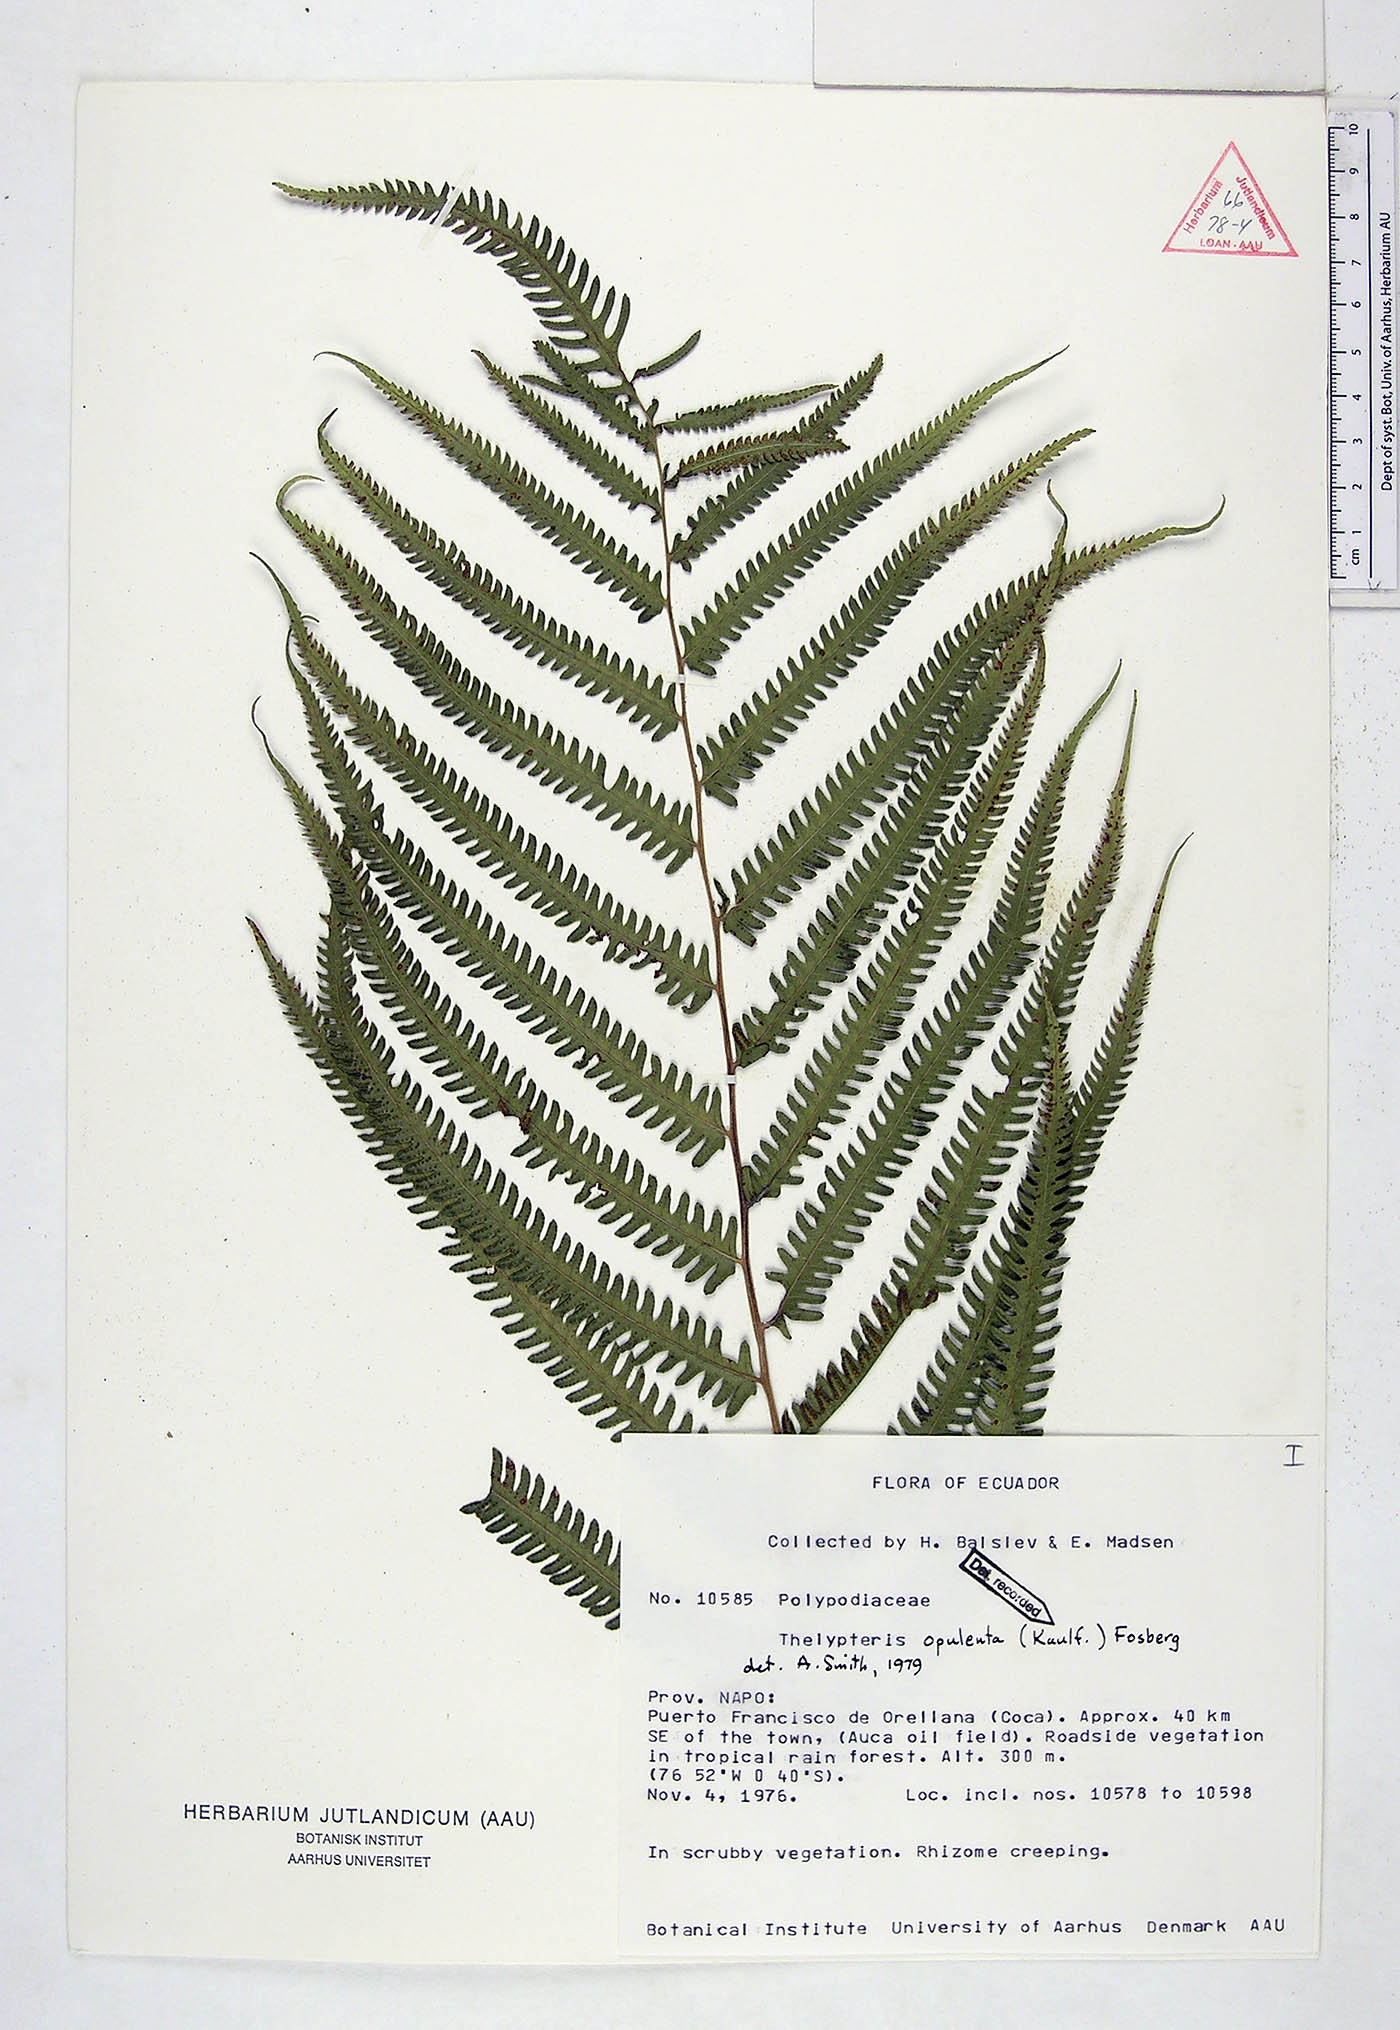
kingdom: Plantae
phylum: Tracheophyta
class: Polypodiopsida
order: Polypodiales
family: Thelypteridaceae
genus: Amblovenatum
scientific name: Amblovenatum opulentum
